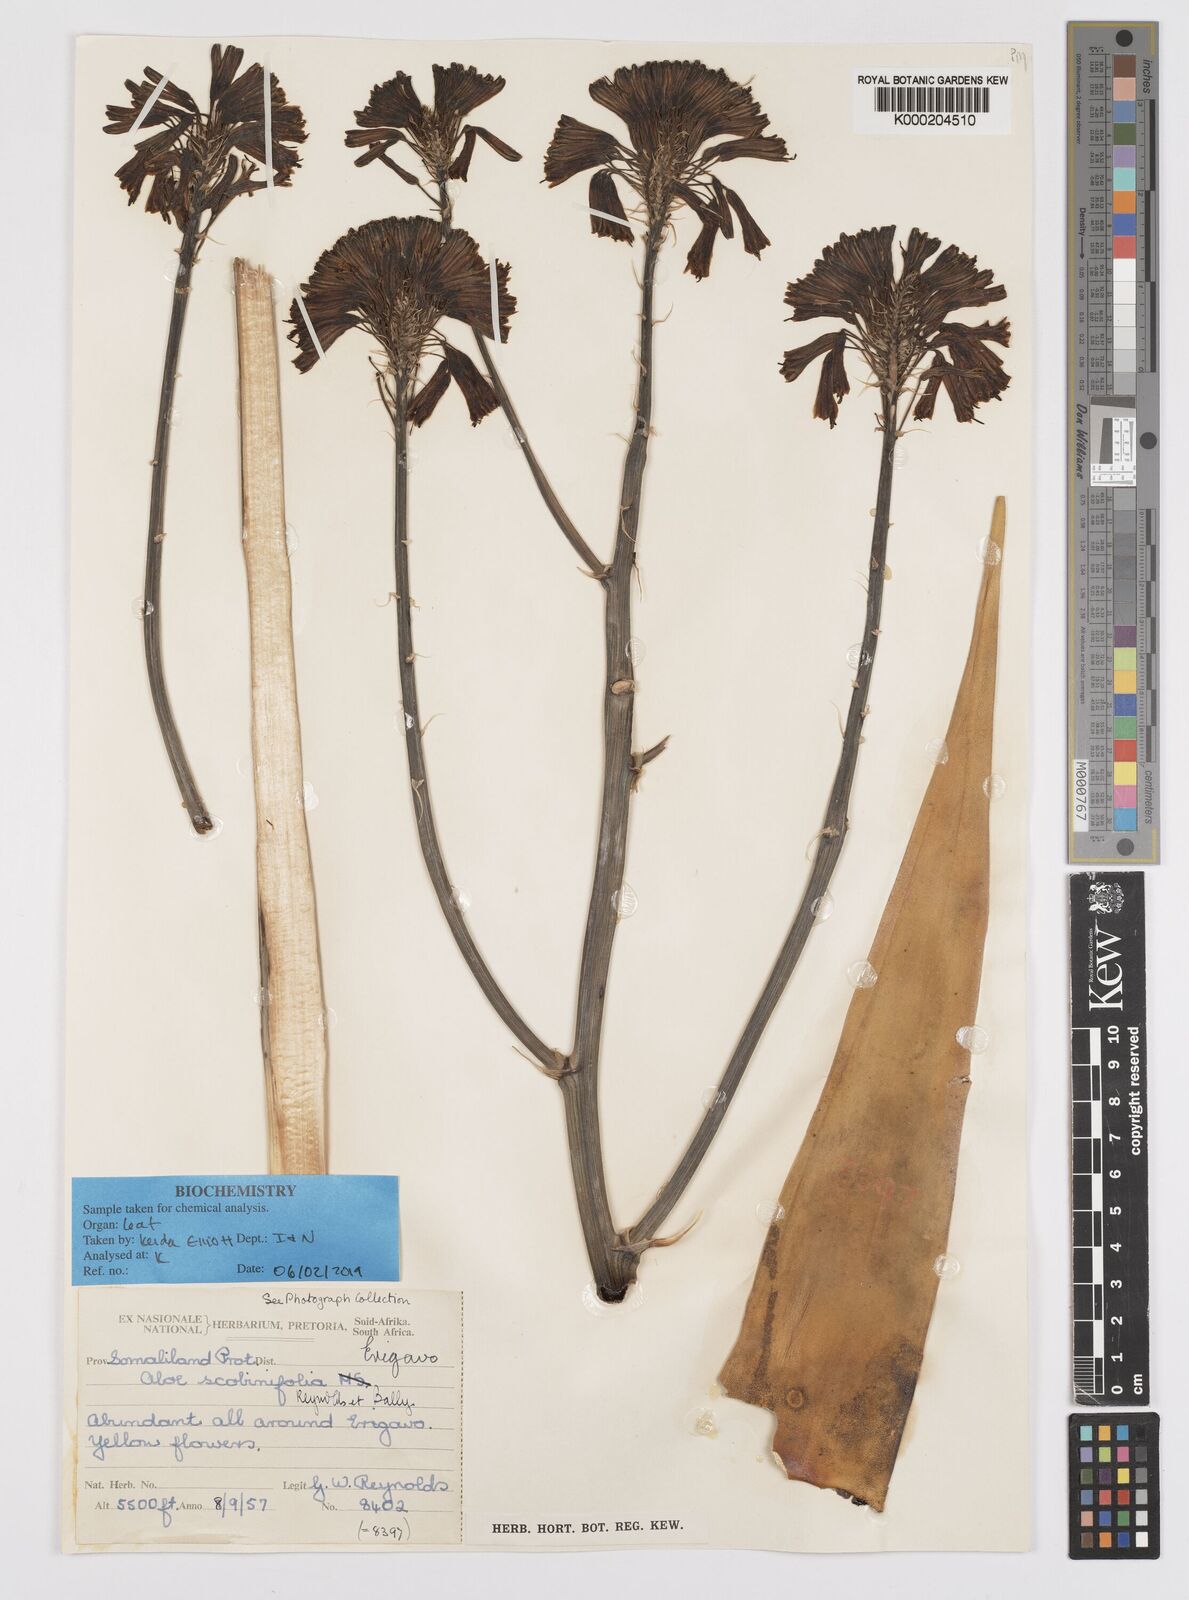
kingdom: Plantae
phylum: Tracheophyta
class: Liliopsida
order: Asparagales
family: Asphodelaceae
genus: Aloe
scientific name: Aloe scobinifolia
